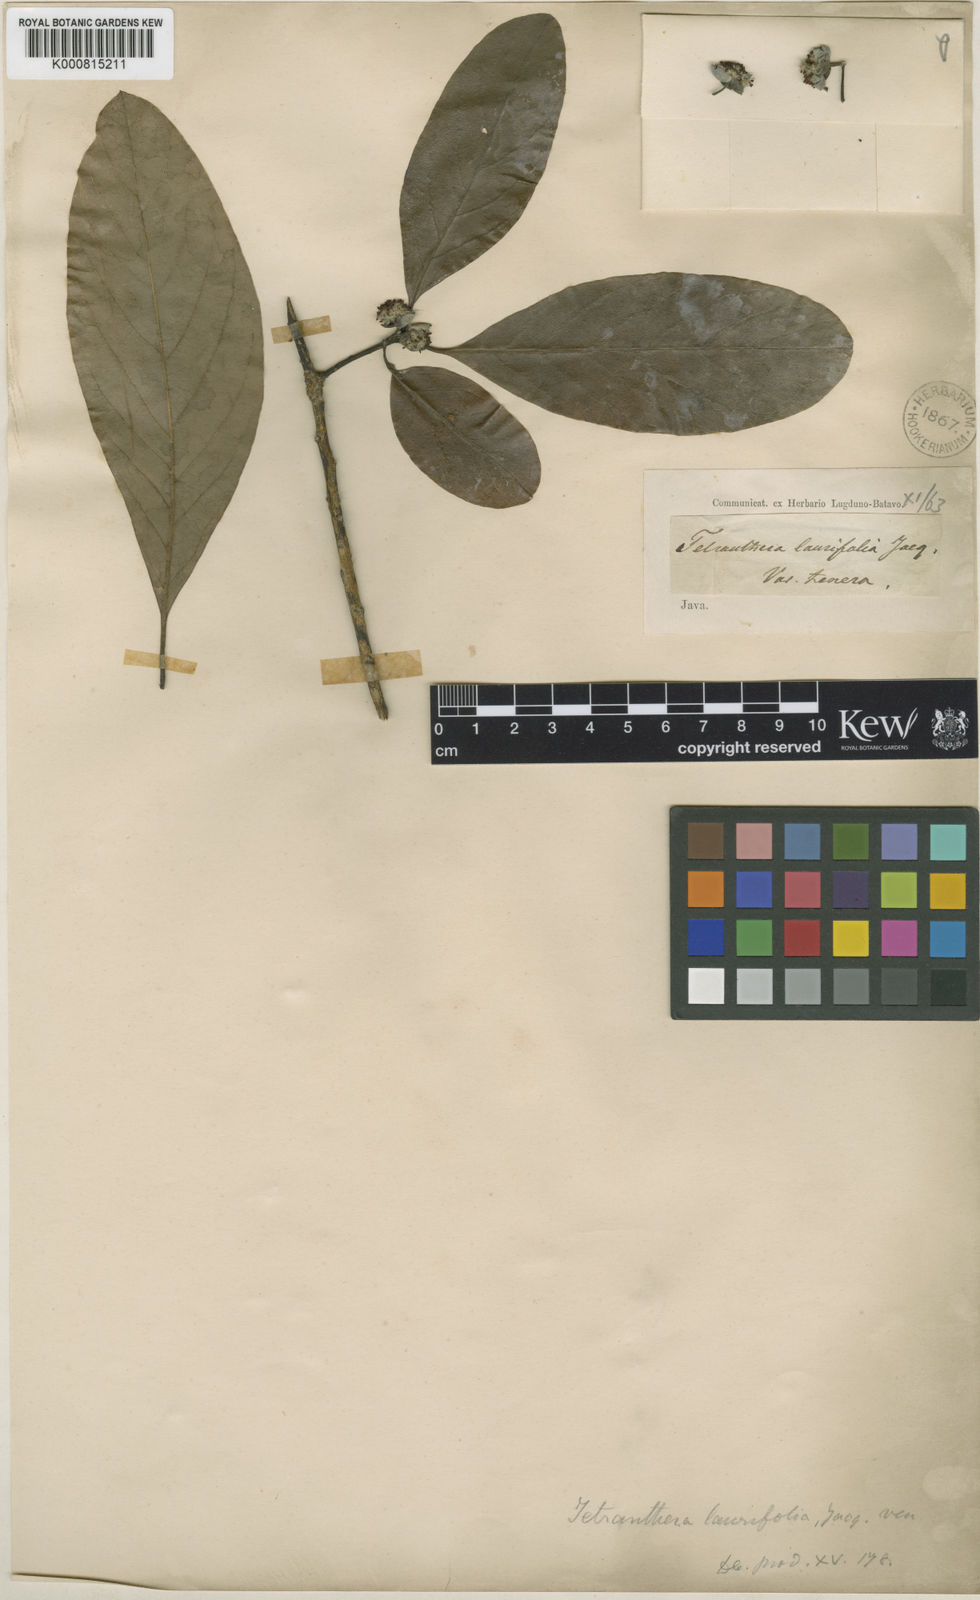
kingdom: Plantae
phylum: Tracheophyta
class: Magnoliopsida
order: Laurales
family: Lauraceae
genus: Litsea
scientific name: Litsea glutinosa
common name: Indian-laurel
